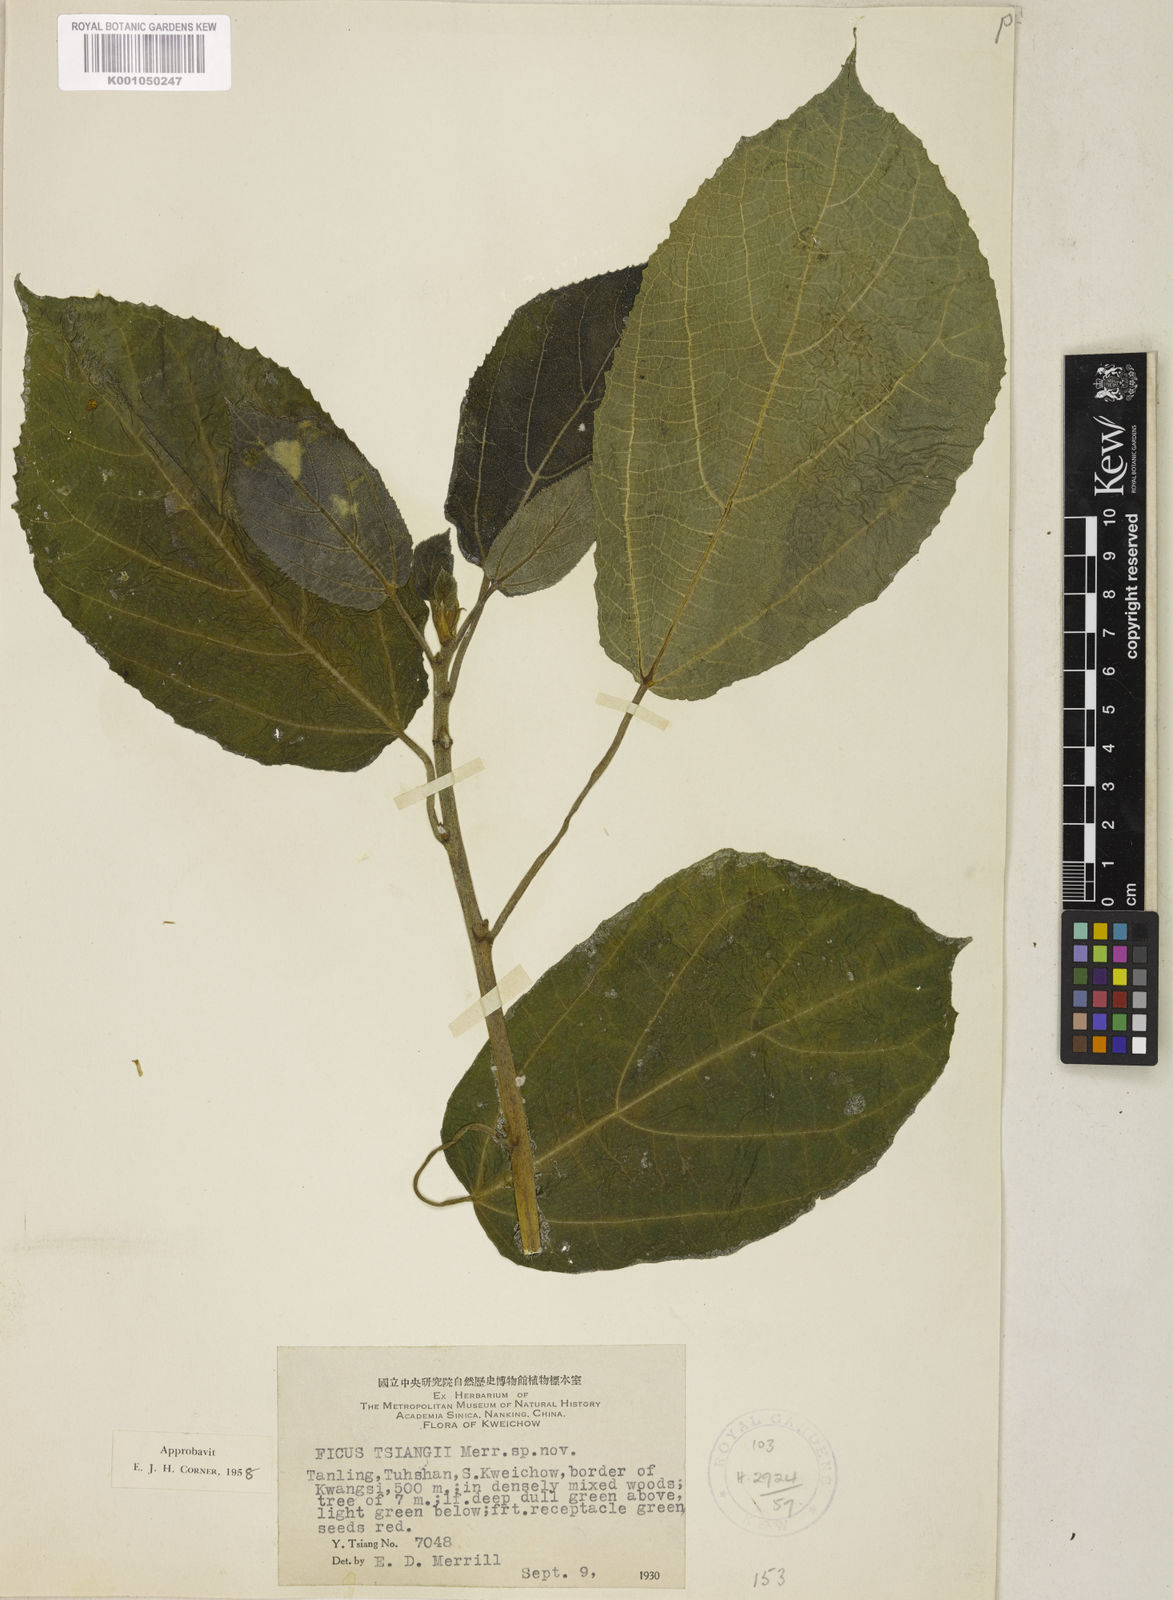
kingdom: Plantae
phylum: Tracheophyta
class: Magnoliopsida
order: Rosales
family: Moraceae
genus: Ficus
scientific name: Ficus tsiangii
